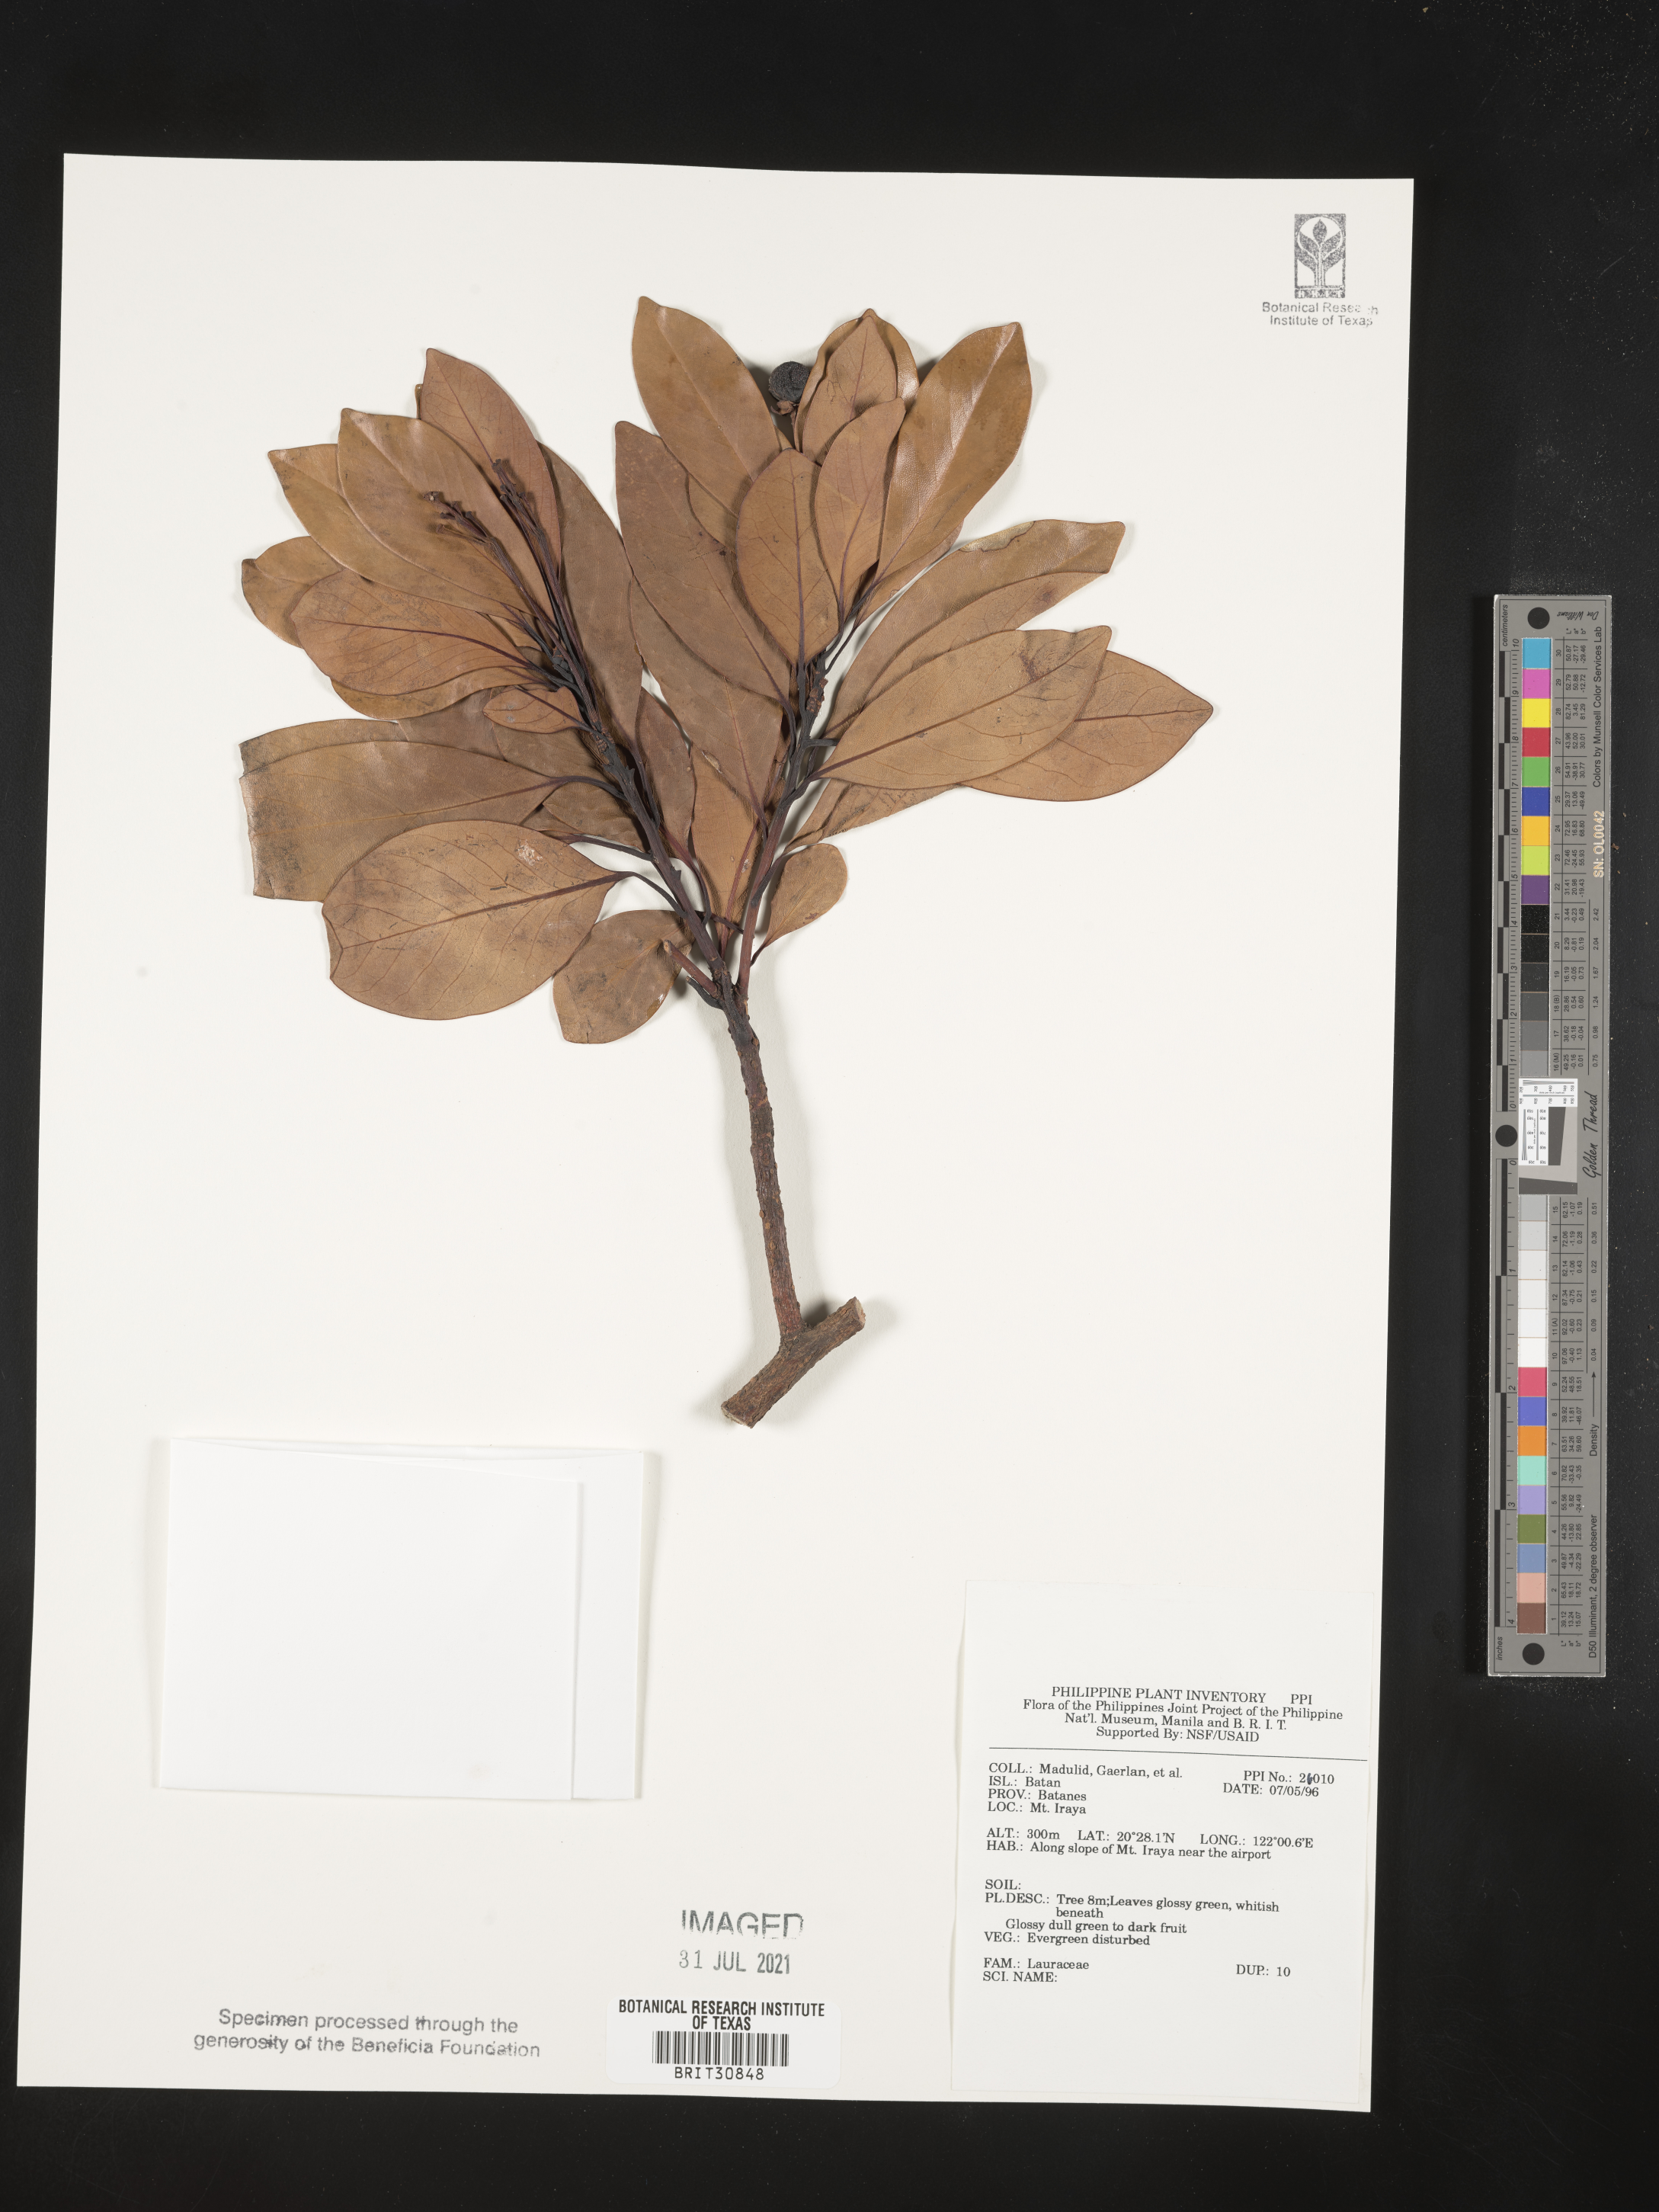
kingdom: Plantae
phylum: Tracheophyta
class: Magnoliopsida
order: Laurales
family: Lauraceae
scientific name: Lauraceae
